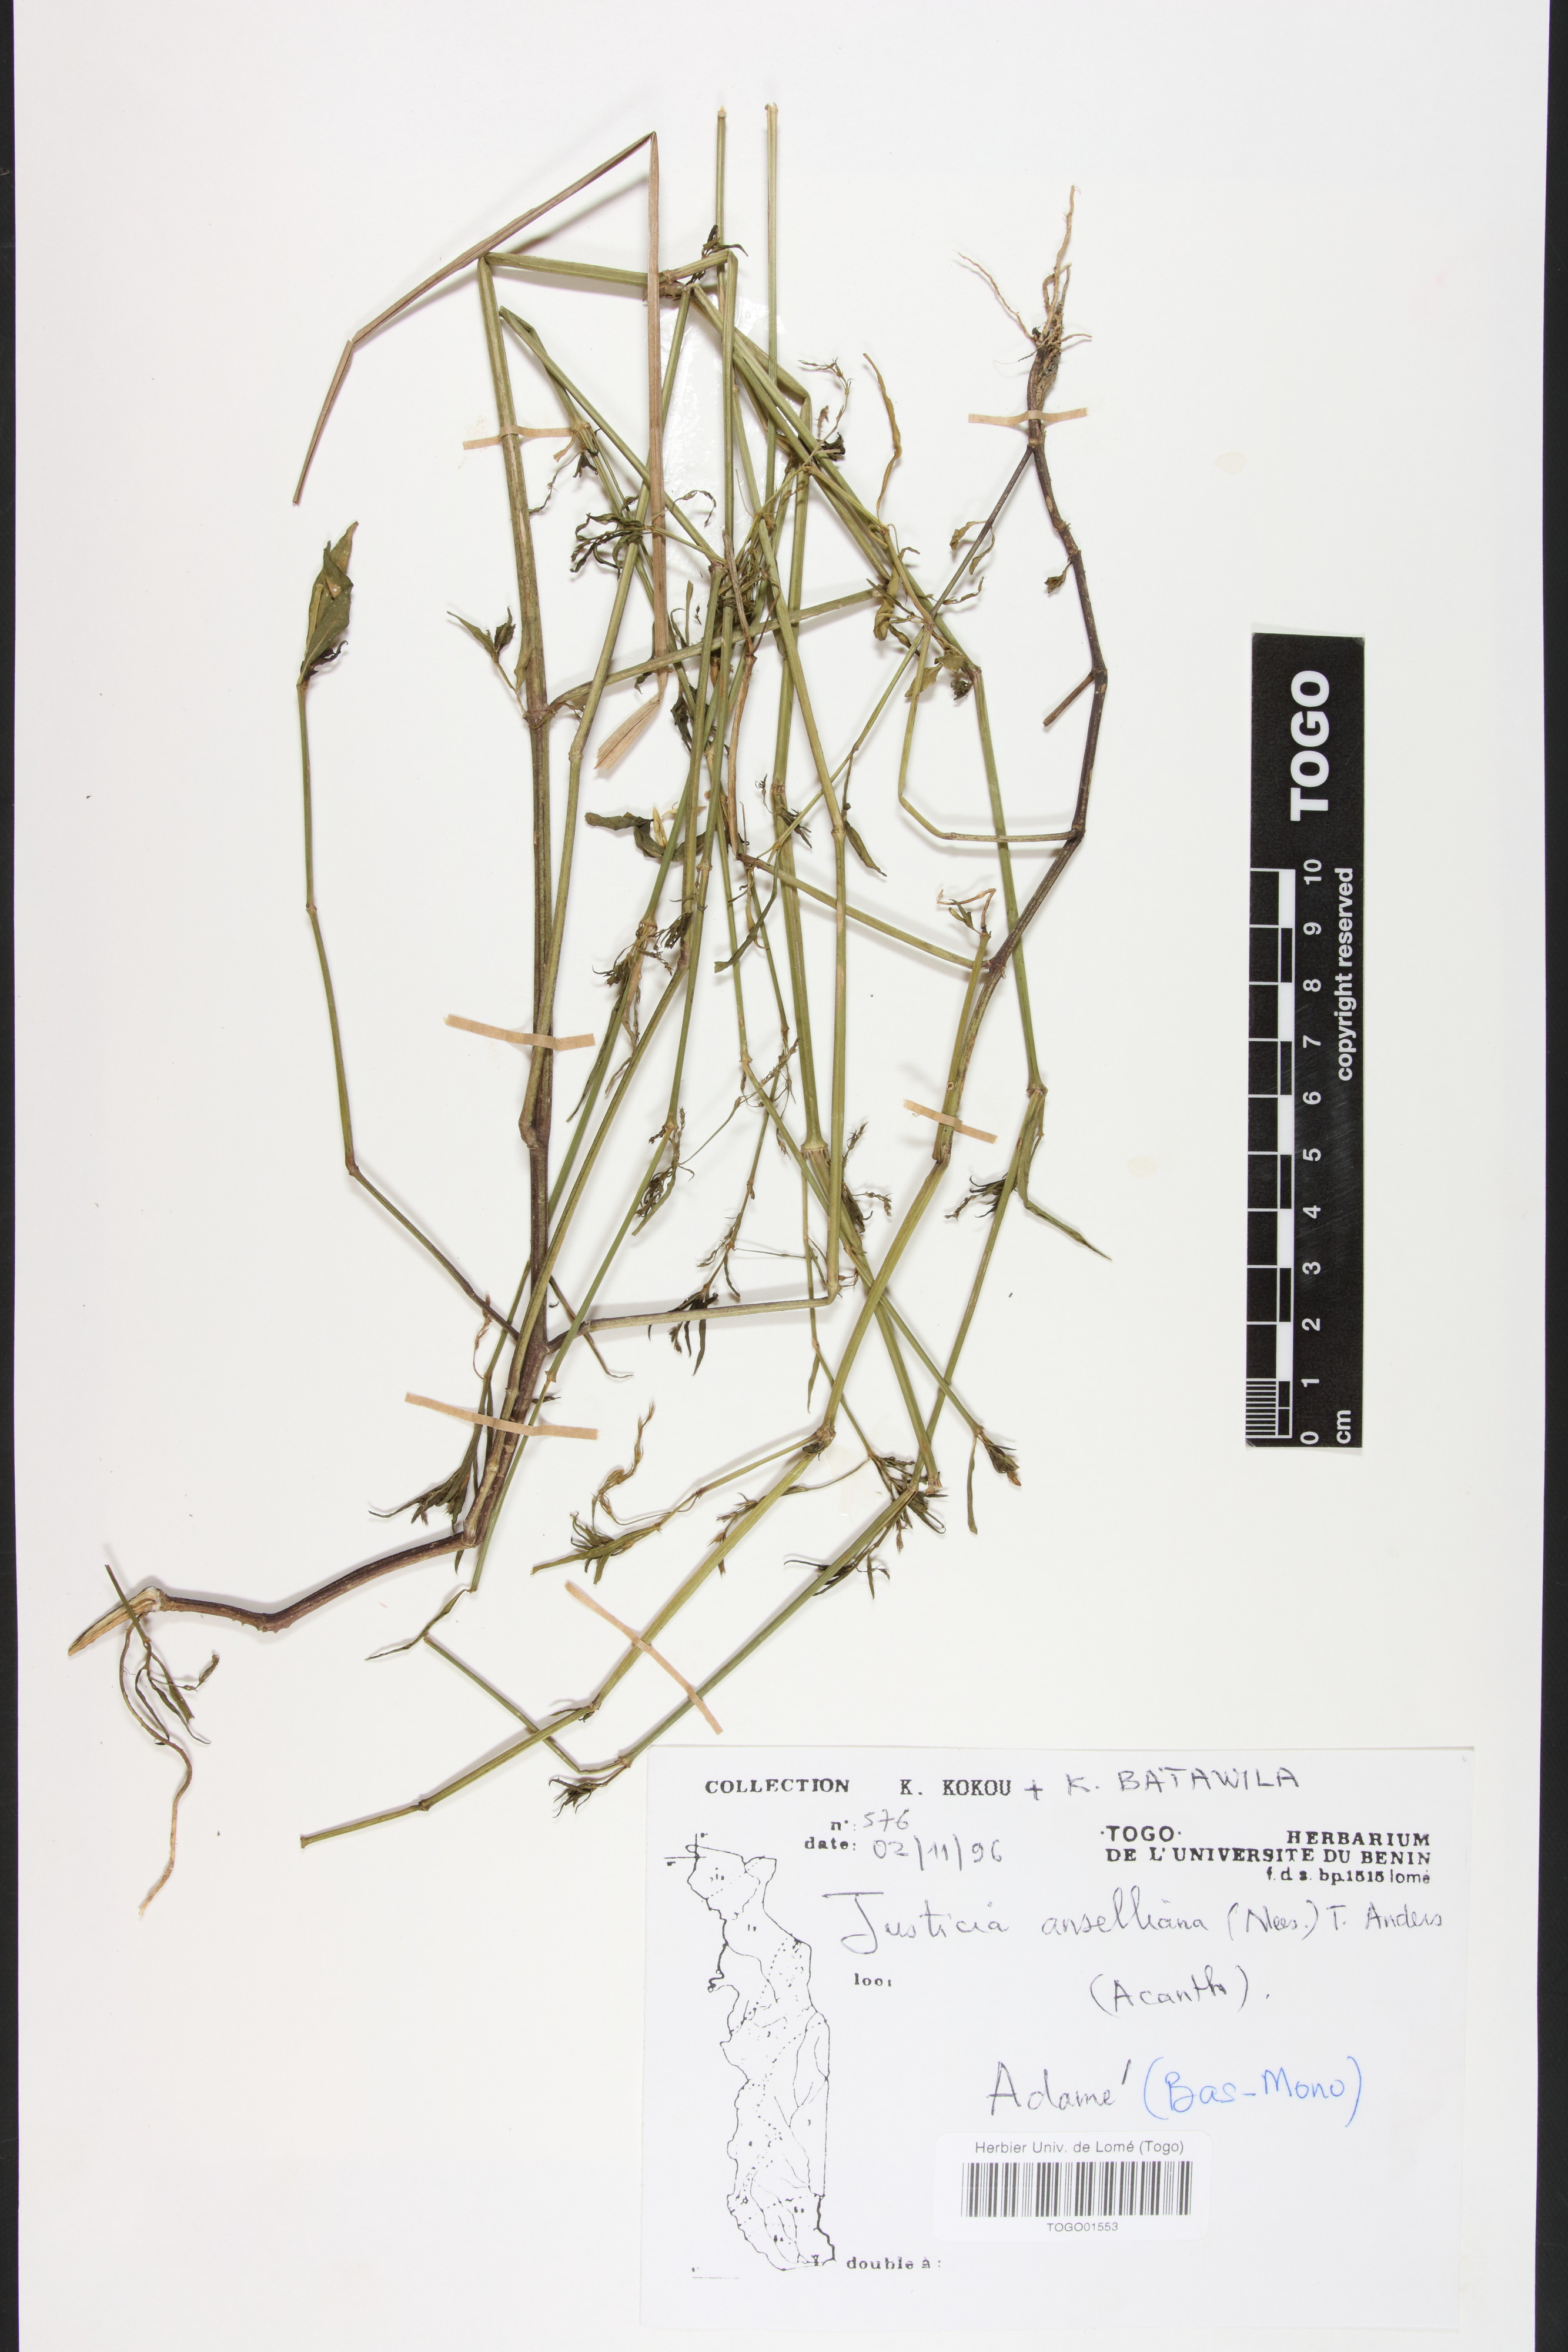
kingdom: Plantae
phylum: Tracheophyta
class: Magnoliopsida
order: Lamiales
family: Acanthaceae
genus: Justicia
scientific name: Justicia anselliana
